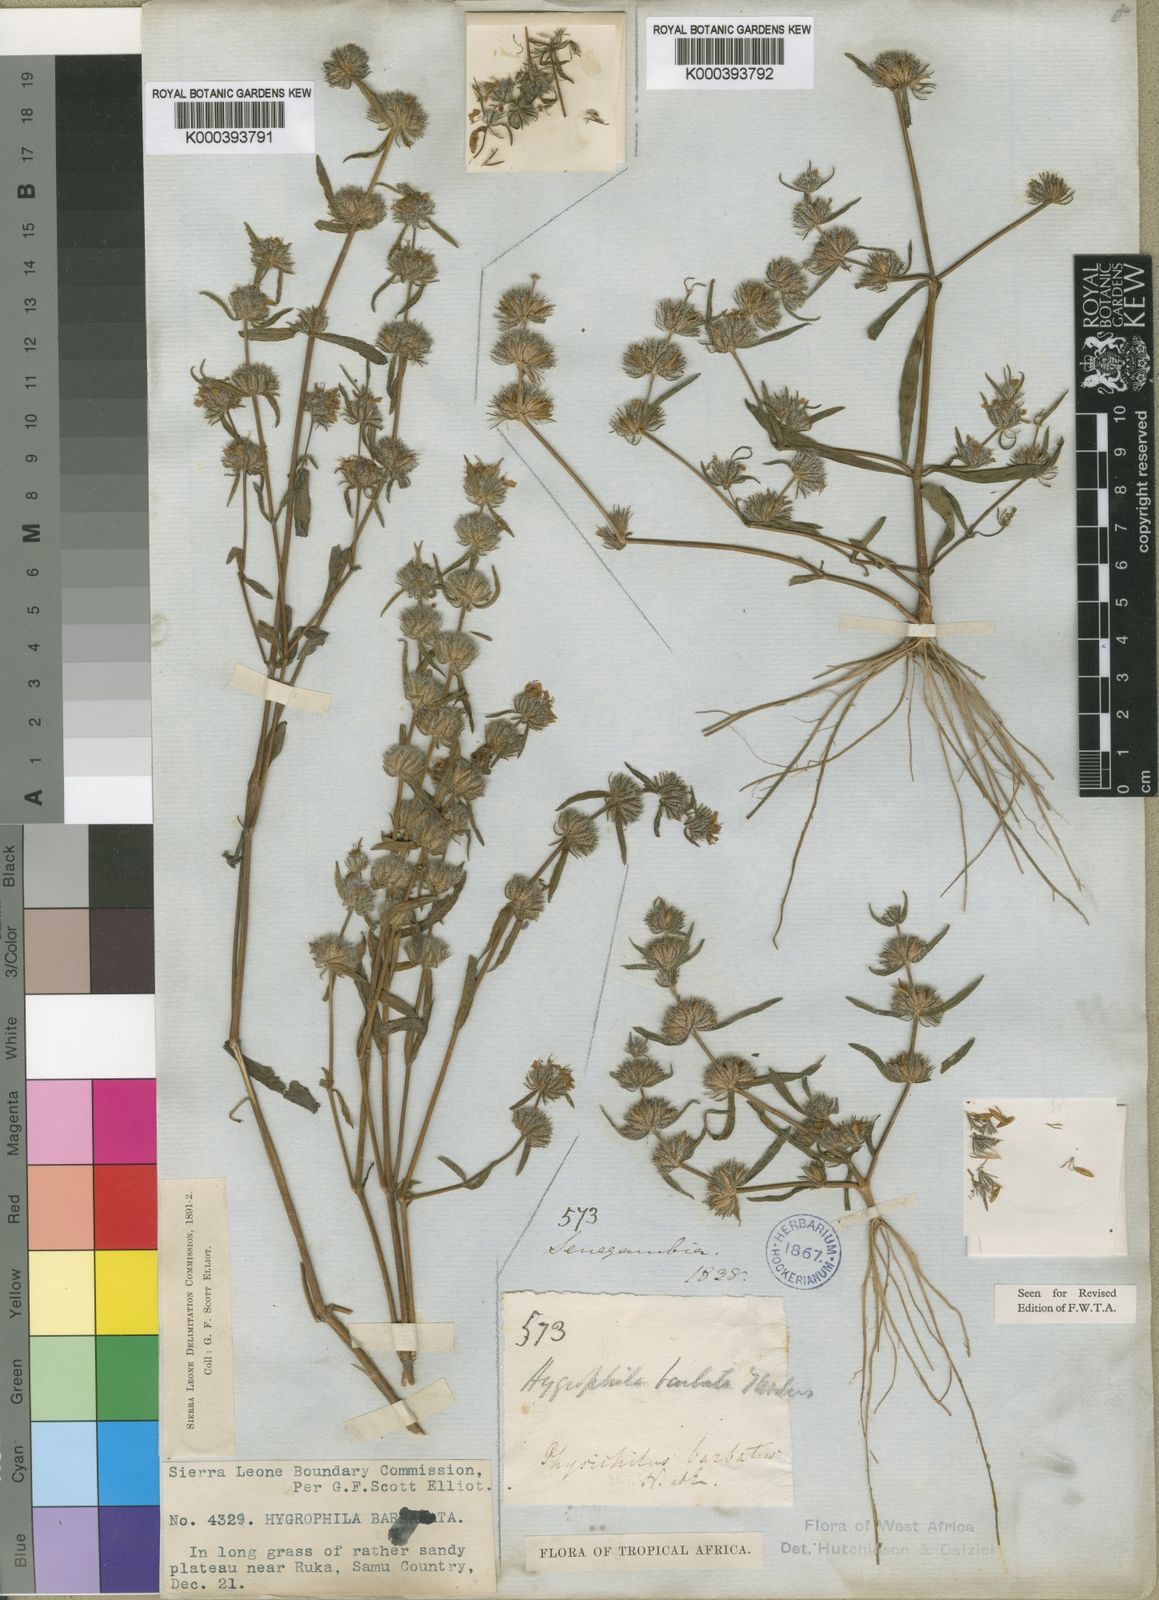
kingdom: Plantae
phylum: Tracheophyta
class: Magnoliopsida
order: Lamiales
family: Acanthaceae
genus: Hygrophila
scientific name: Hygrophila barbata
